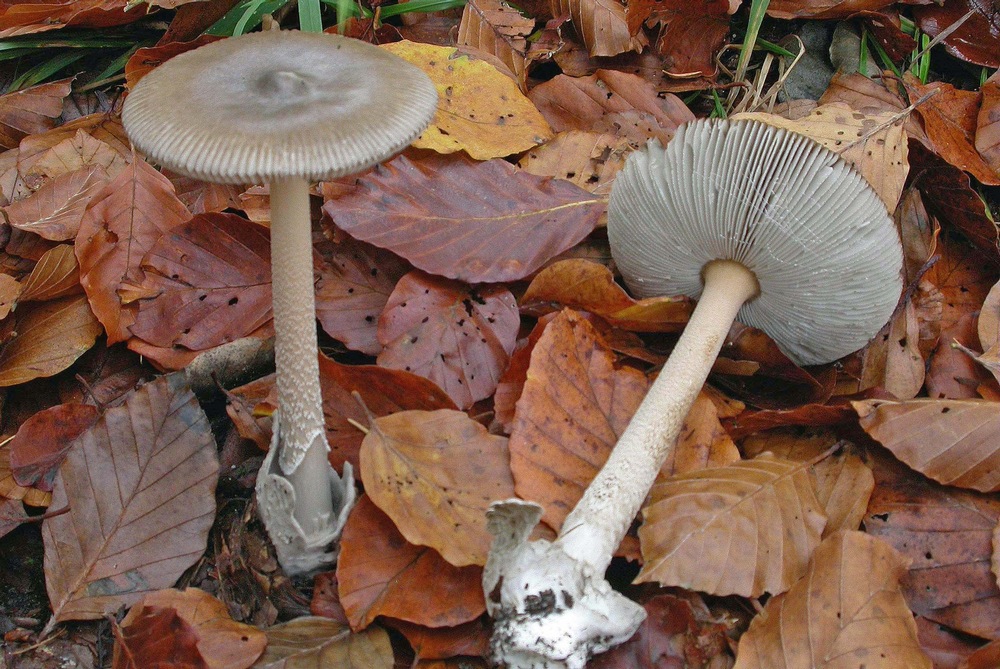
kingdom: Fungi
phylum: Basidiomycota
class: Agaricomycetes
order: Agaricales
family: Amanitaceae
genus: Amanita
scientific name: Amanita submembranacea
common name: gråspættet kam-fluesvamp
